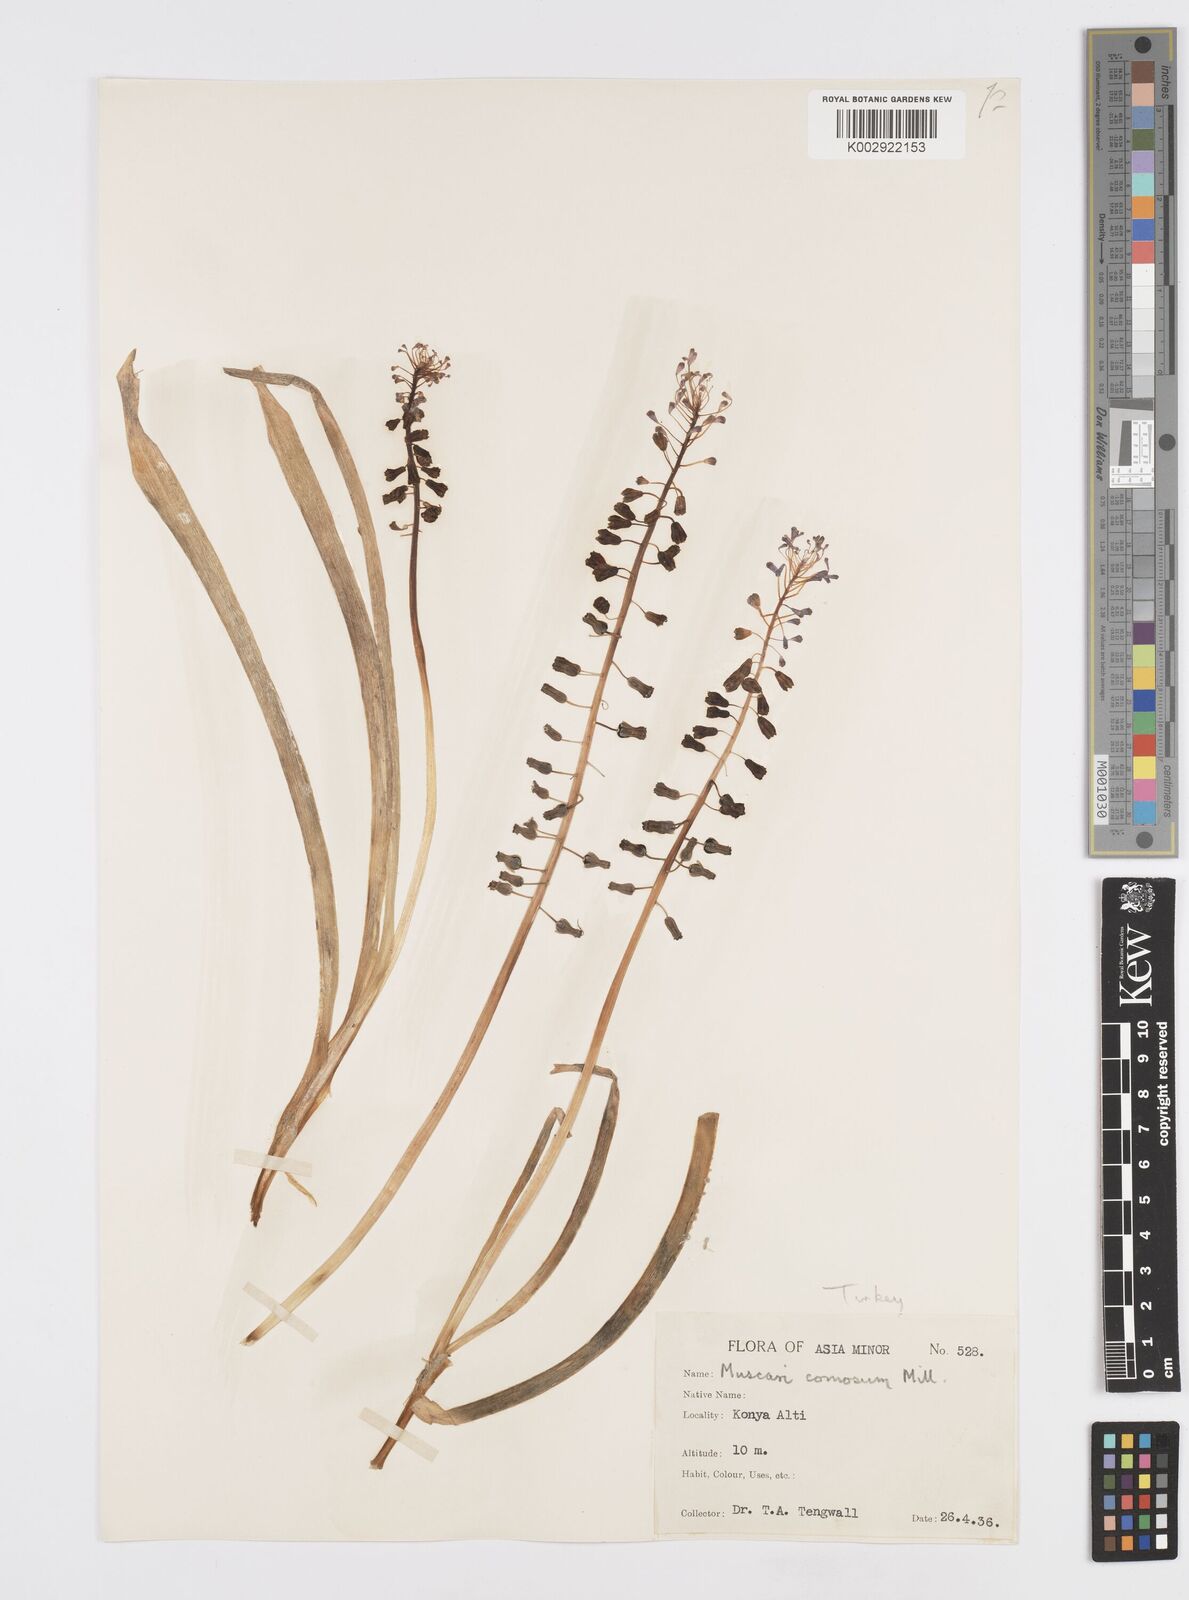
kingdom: Plantae
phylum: Tracheophyta
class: Liliopsida
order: Asparagales
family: Asparagaceae
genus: Muscari
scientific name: Muscari comosum
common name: Tassel hyacinth
